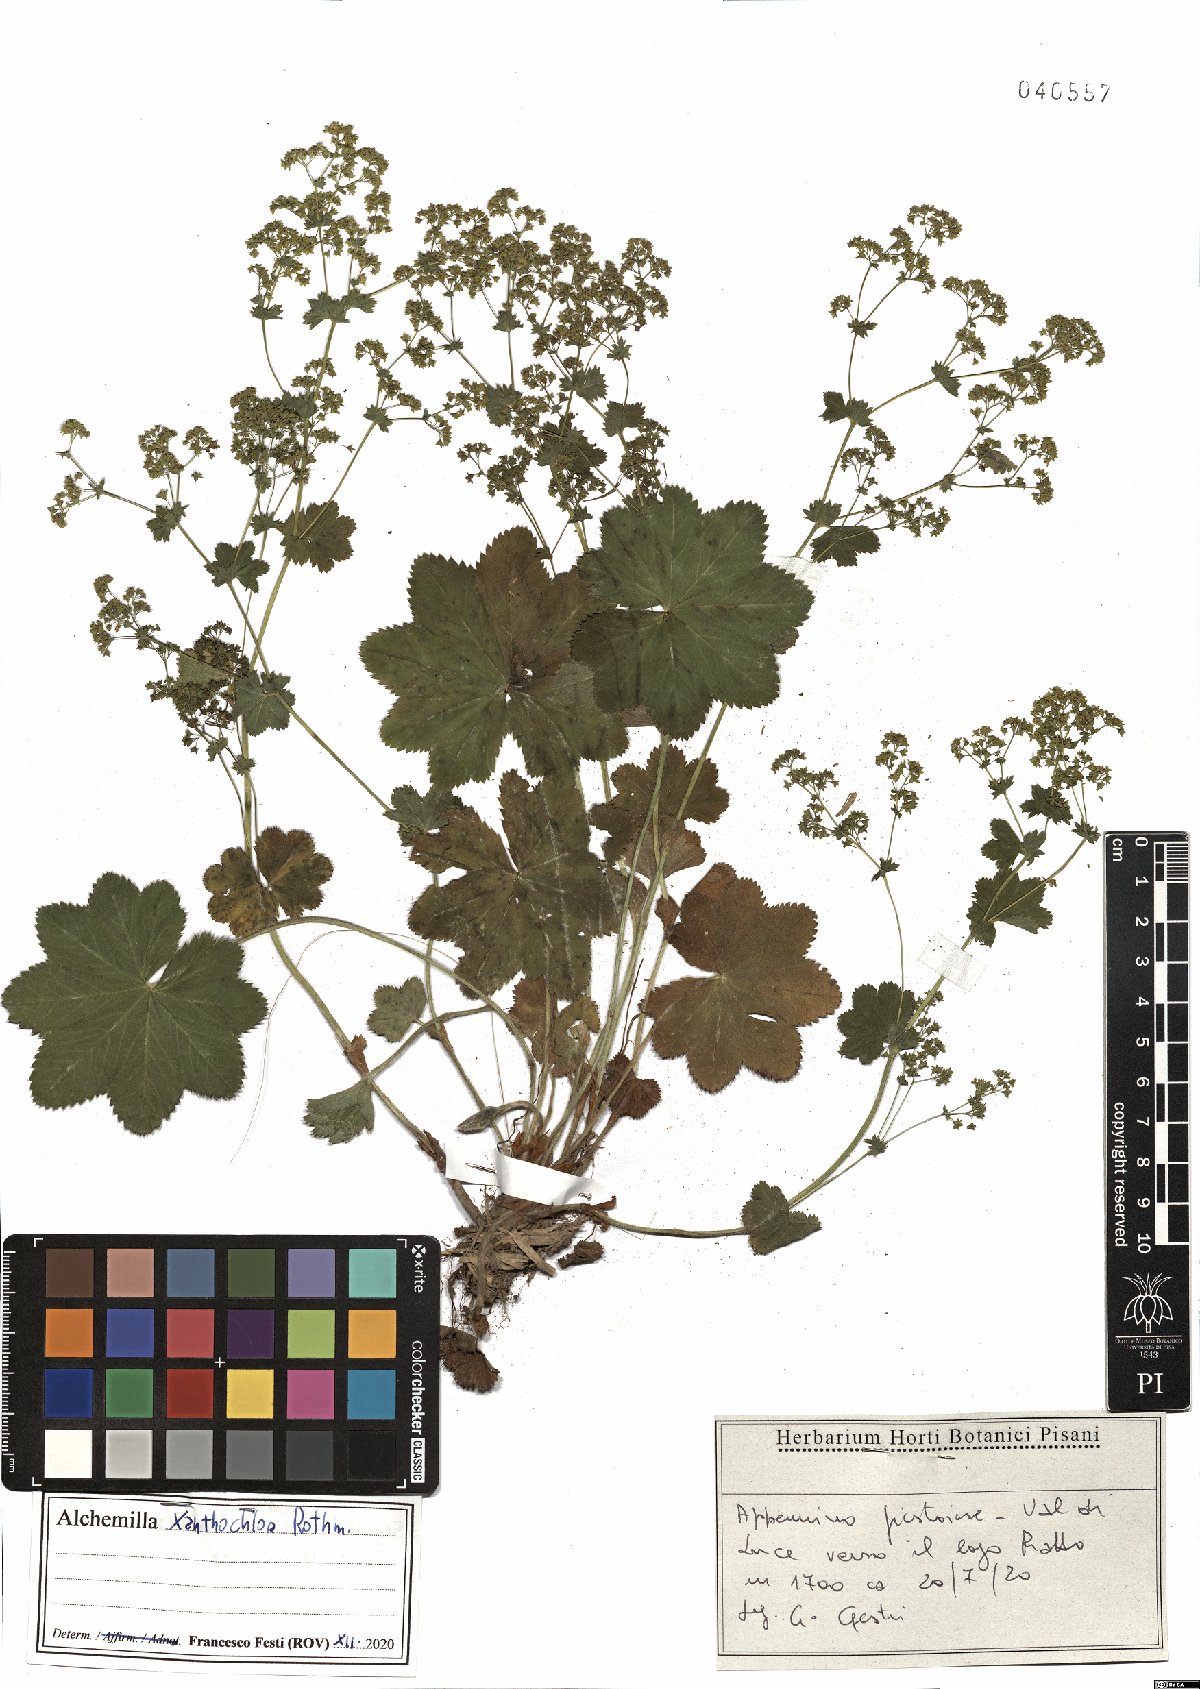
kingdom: Plantae
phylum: Tracheophyta
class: Magnoliopsida
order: Rosales
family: Rosaceae
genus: Alchemilla
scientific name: Alchemilla xanthochlora
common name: Intermediate lady's-mantle
